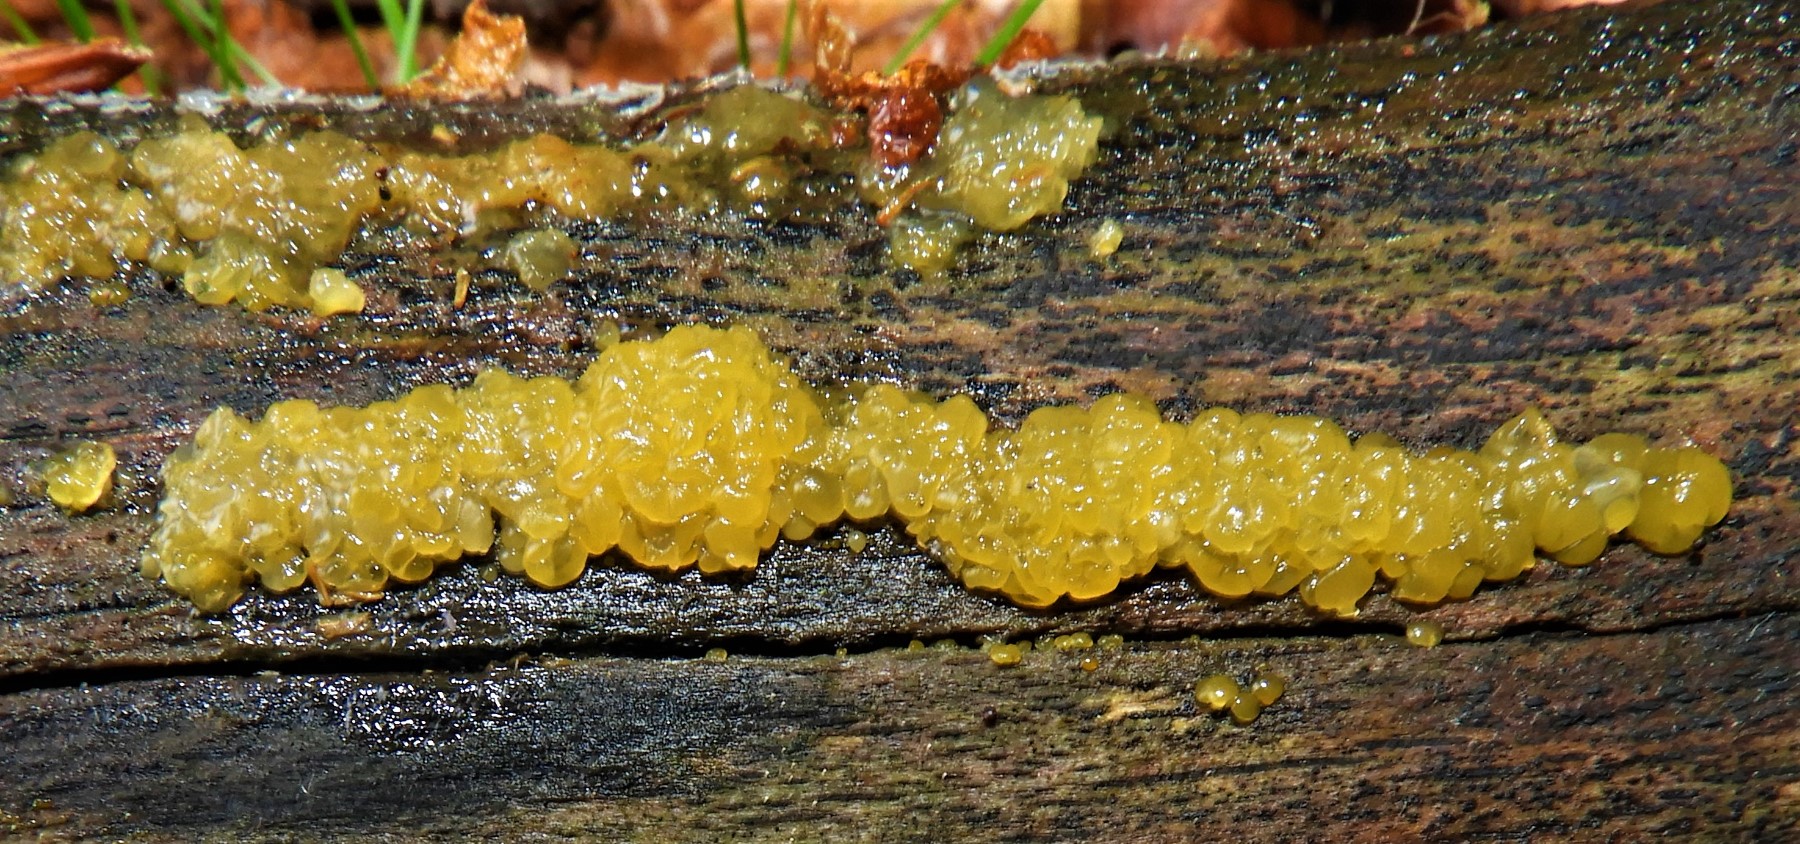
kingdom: Fungi
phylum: Basidiomycota
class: Dacrymycetes
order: Dacrymycetales
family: Dacrymycetaceae
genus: Dacrymyces
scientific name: Dacrymyces lacrymalis
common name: rynket tåresvamp
